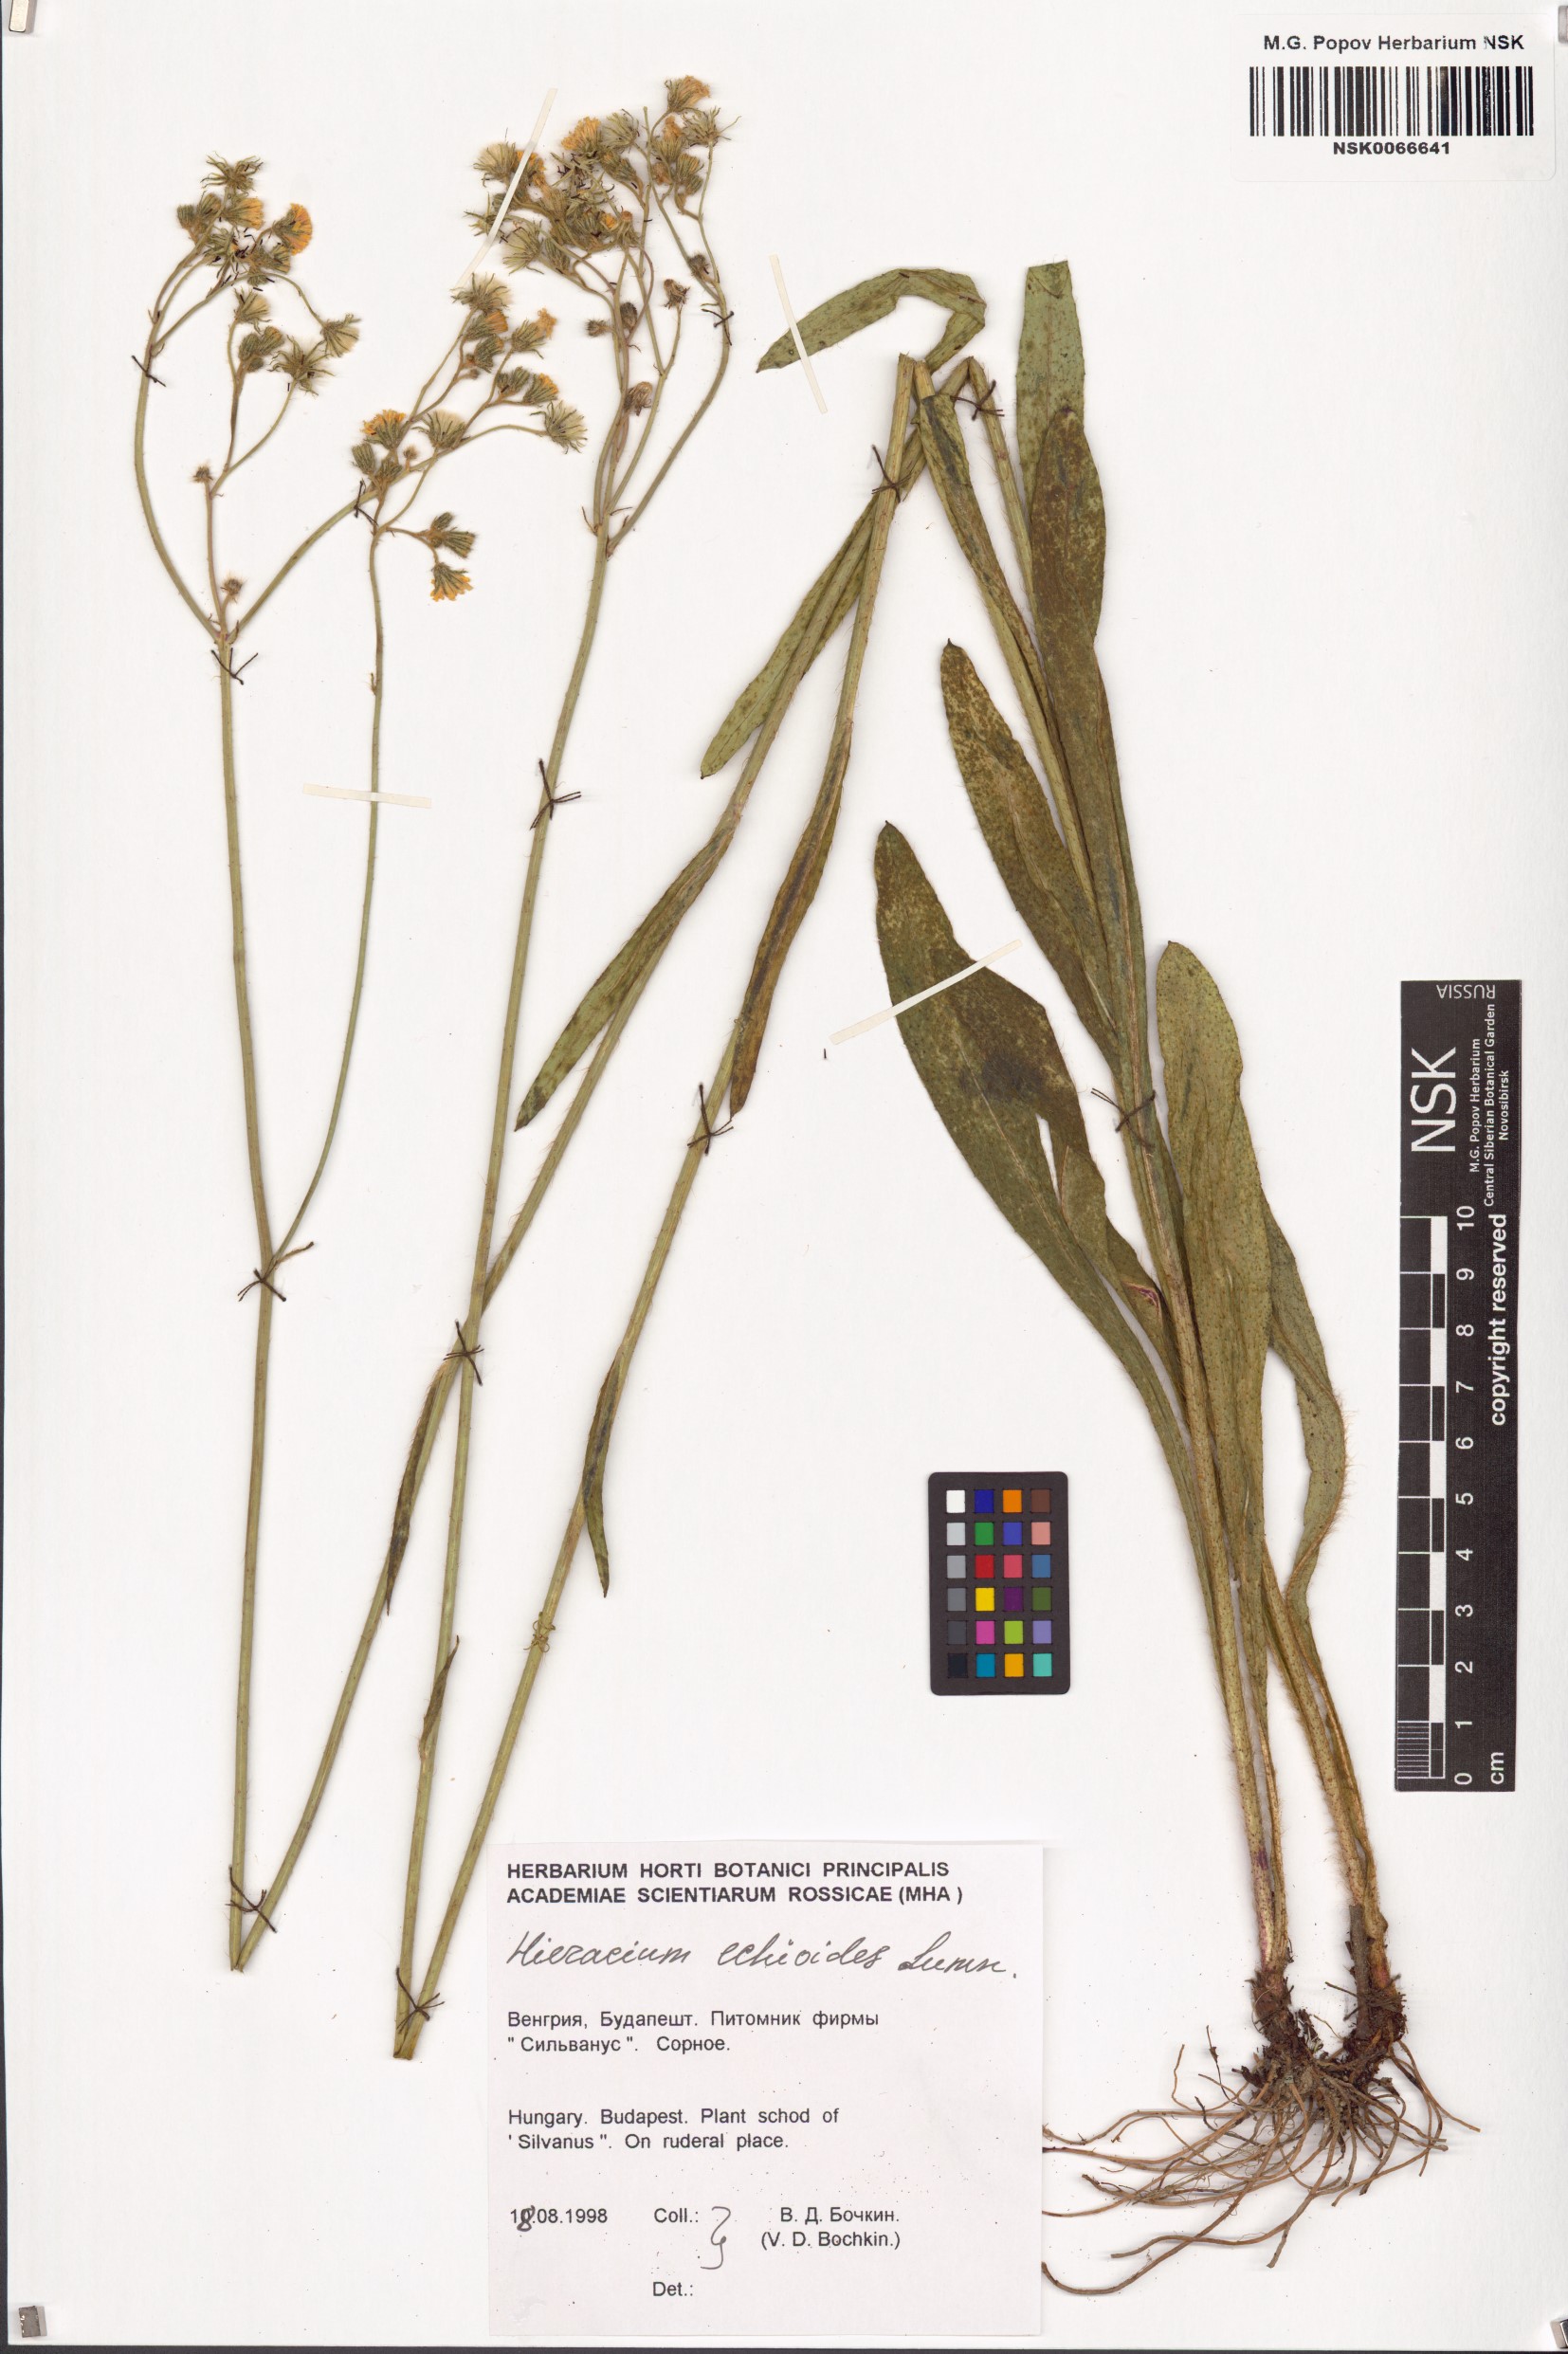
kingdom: Plantae
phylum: Tracheophyta
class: Magnoliopsida
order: Asterales
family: Asteraceae
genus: Pilosella
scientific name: Pilosella echioides
